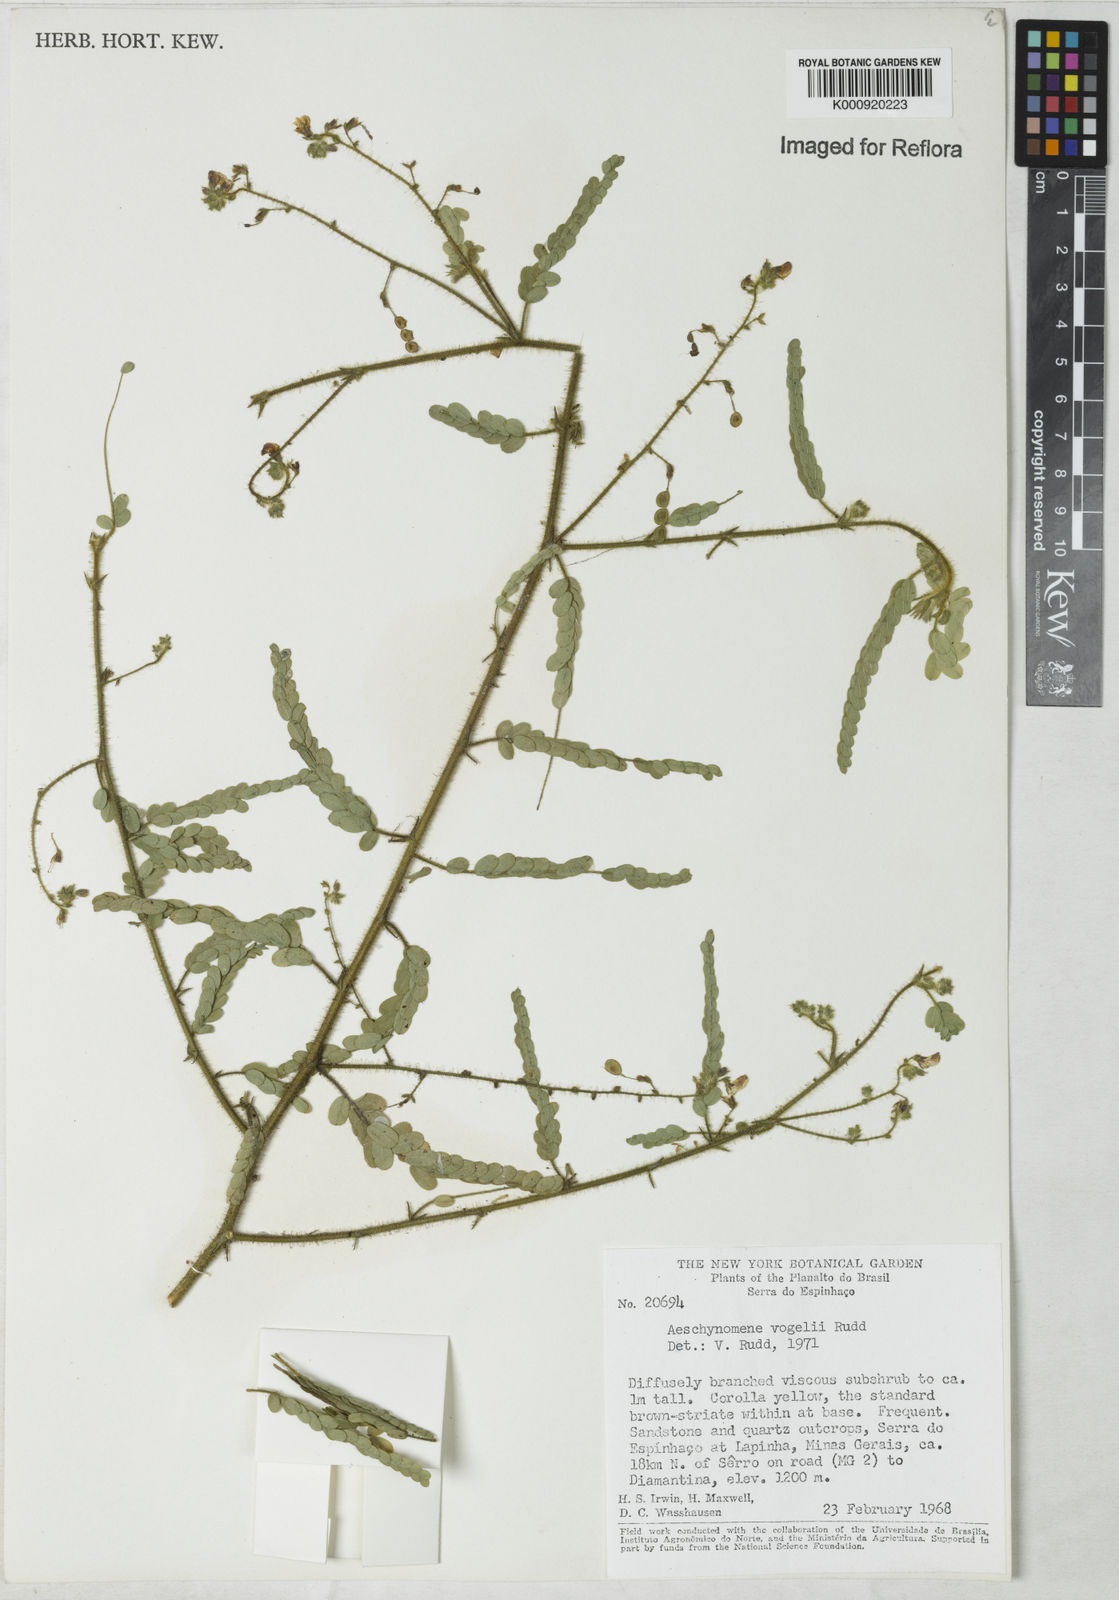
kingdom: Plantae
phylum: Tracheophyta
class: Magnoliopsida
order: Fabales
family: Fabaceae
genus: Ctenodon
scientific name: Ctenodon vogelii
